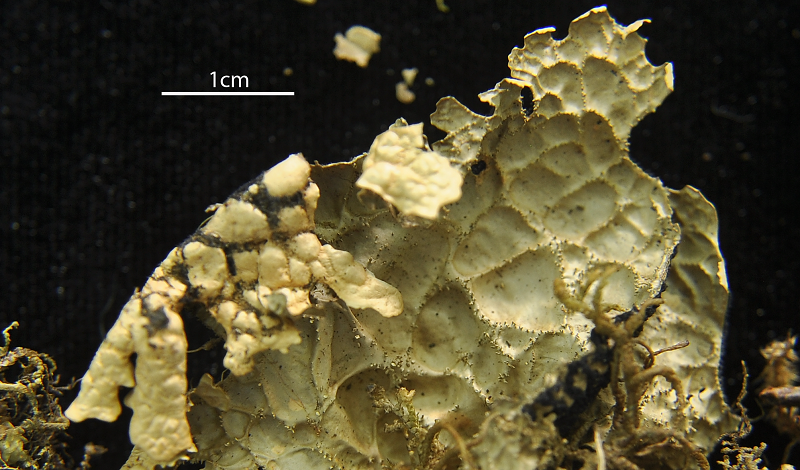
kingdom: Fungi
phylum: Ascomycota
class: Lecanoromycetes
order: Peltigerales
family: Lobariaceae
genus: Lobaria
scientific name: Lobaria
